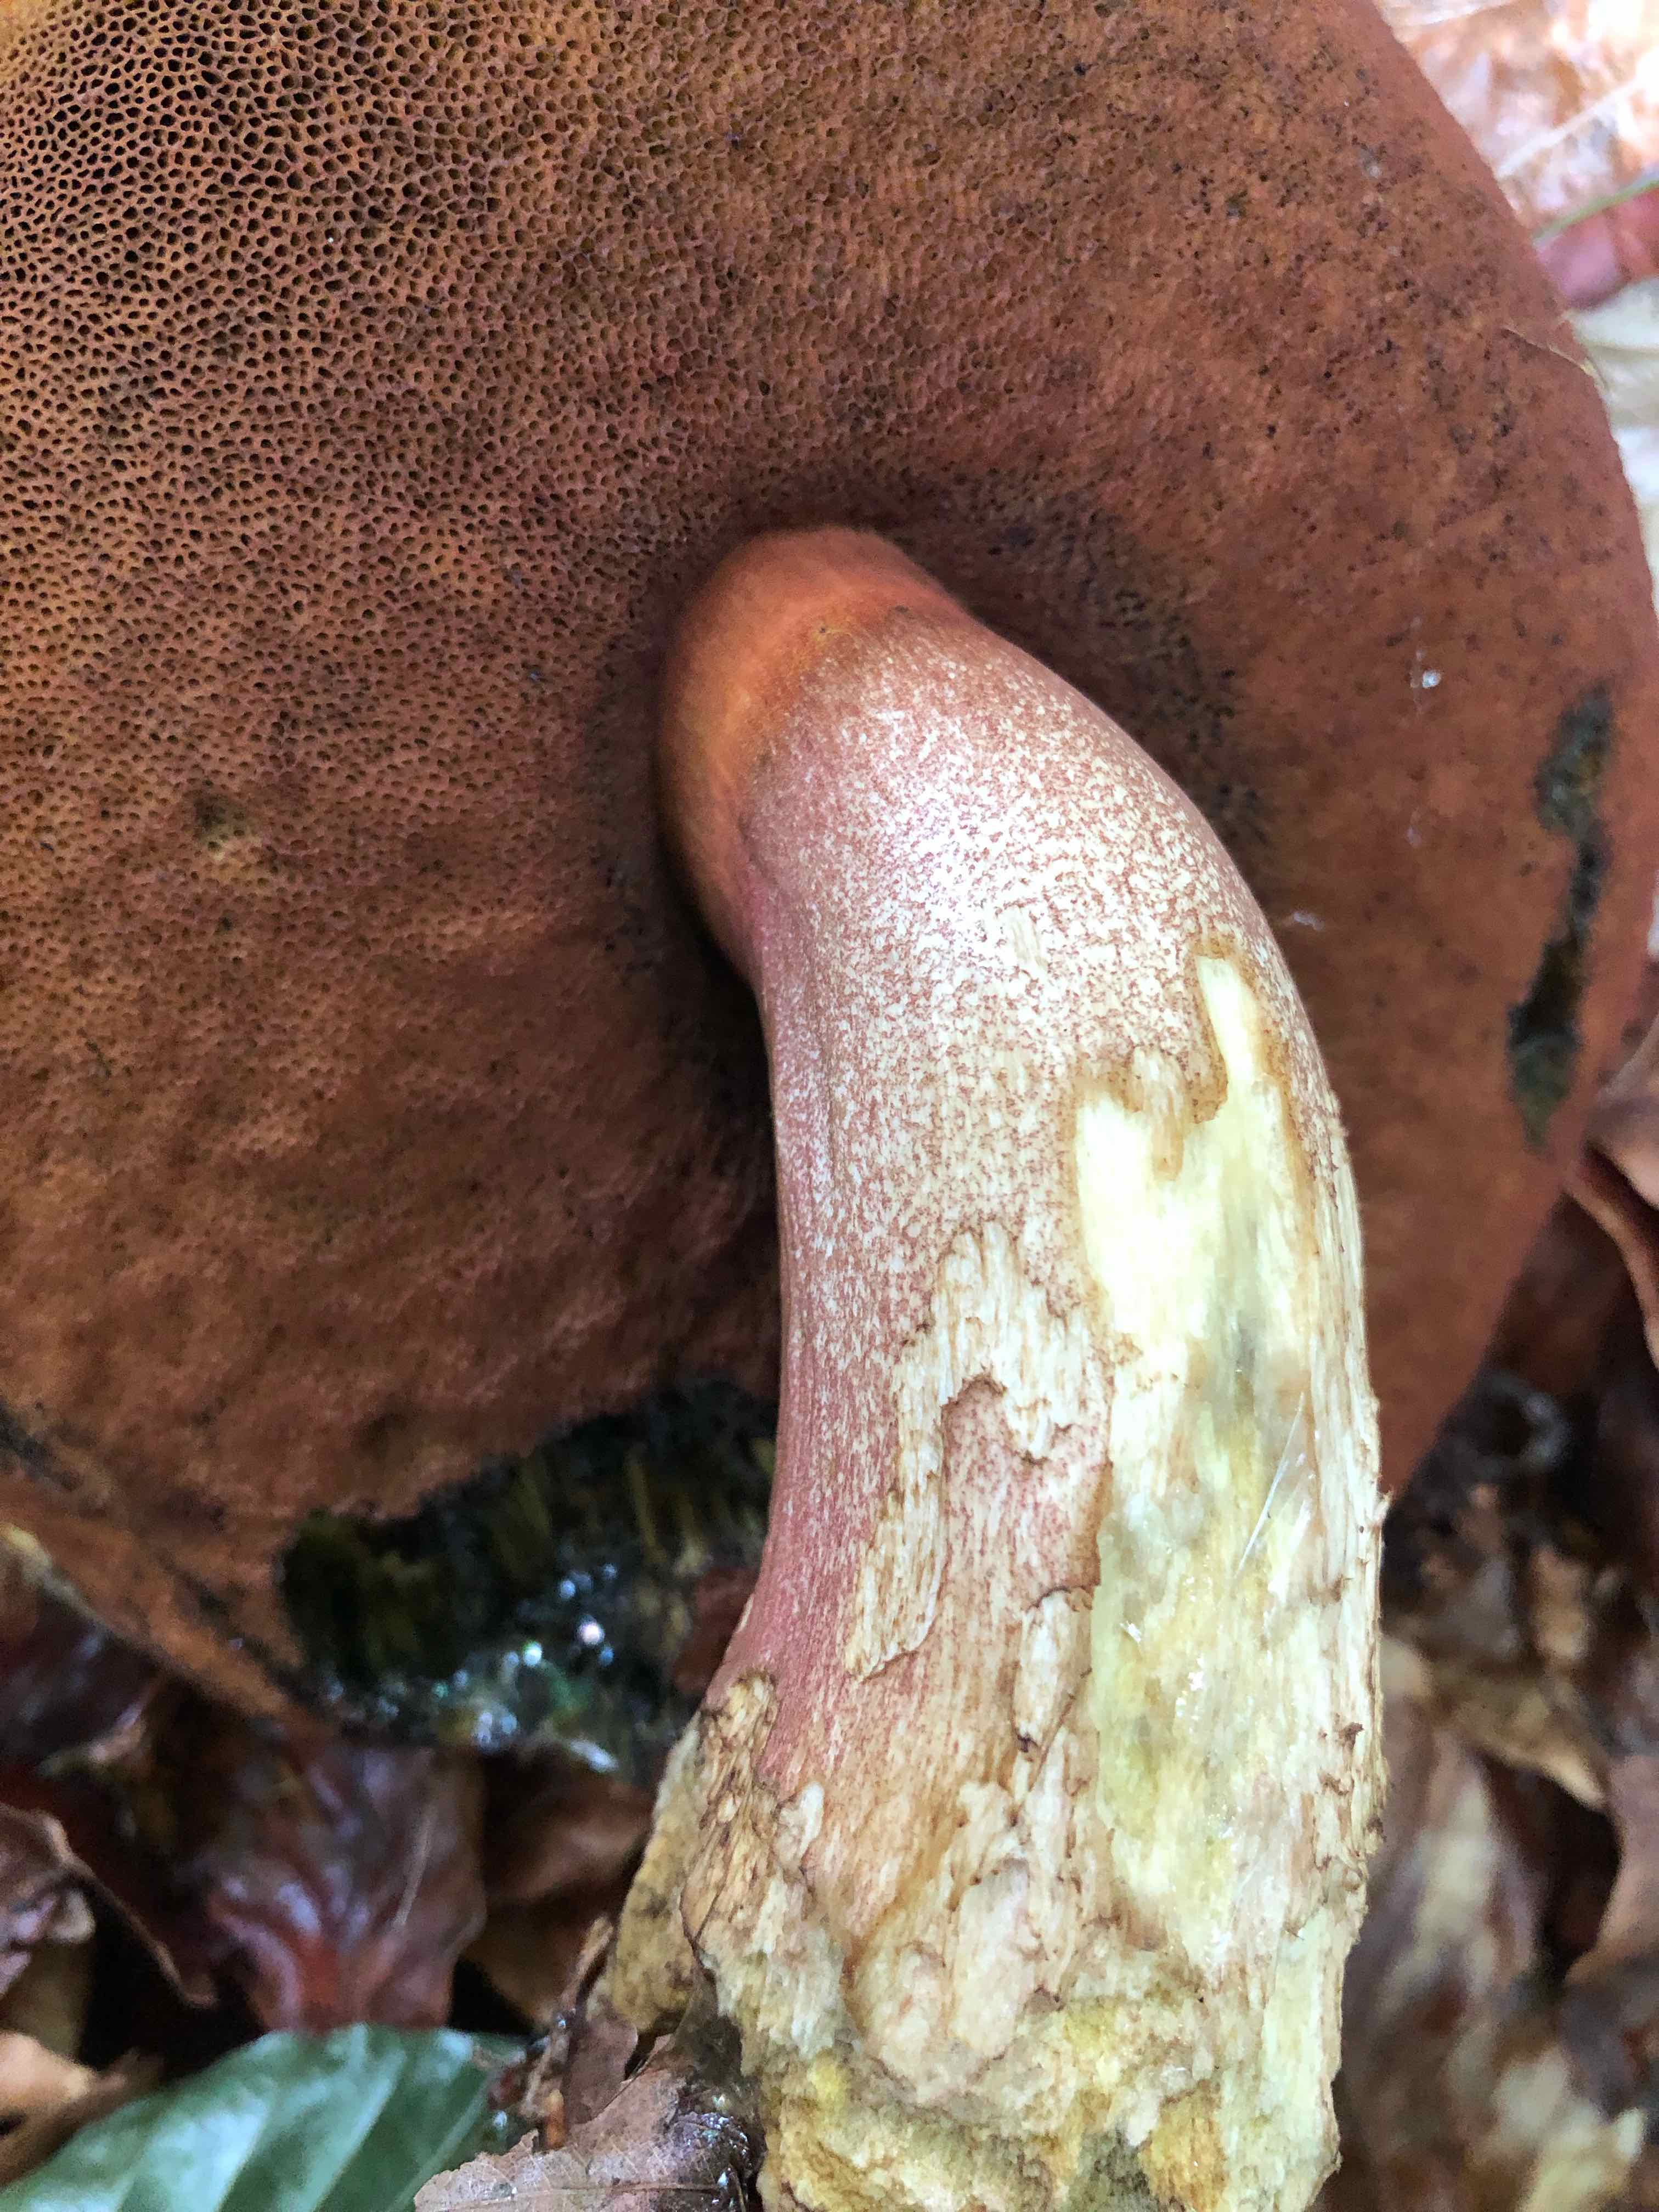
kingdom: Fungi
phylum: Basidiomycota
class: Agaricomycetes
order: Boletales
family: Boletaceae
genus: Neoboletus
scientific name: Neoboletus erythropus
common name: punktstokket indigorørhat
